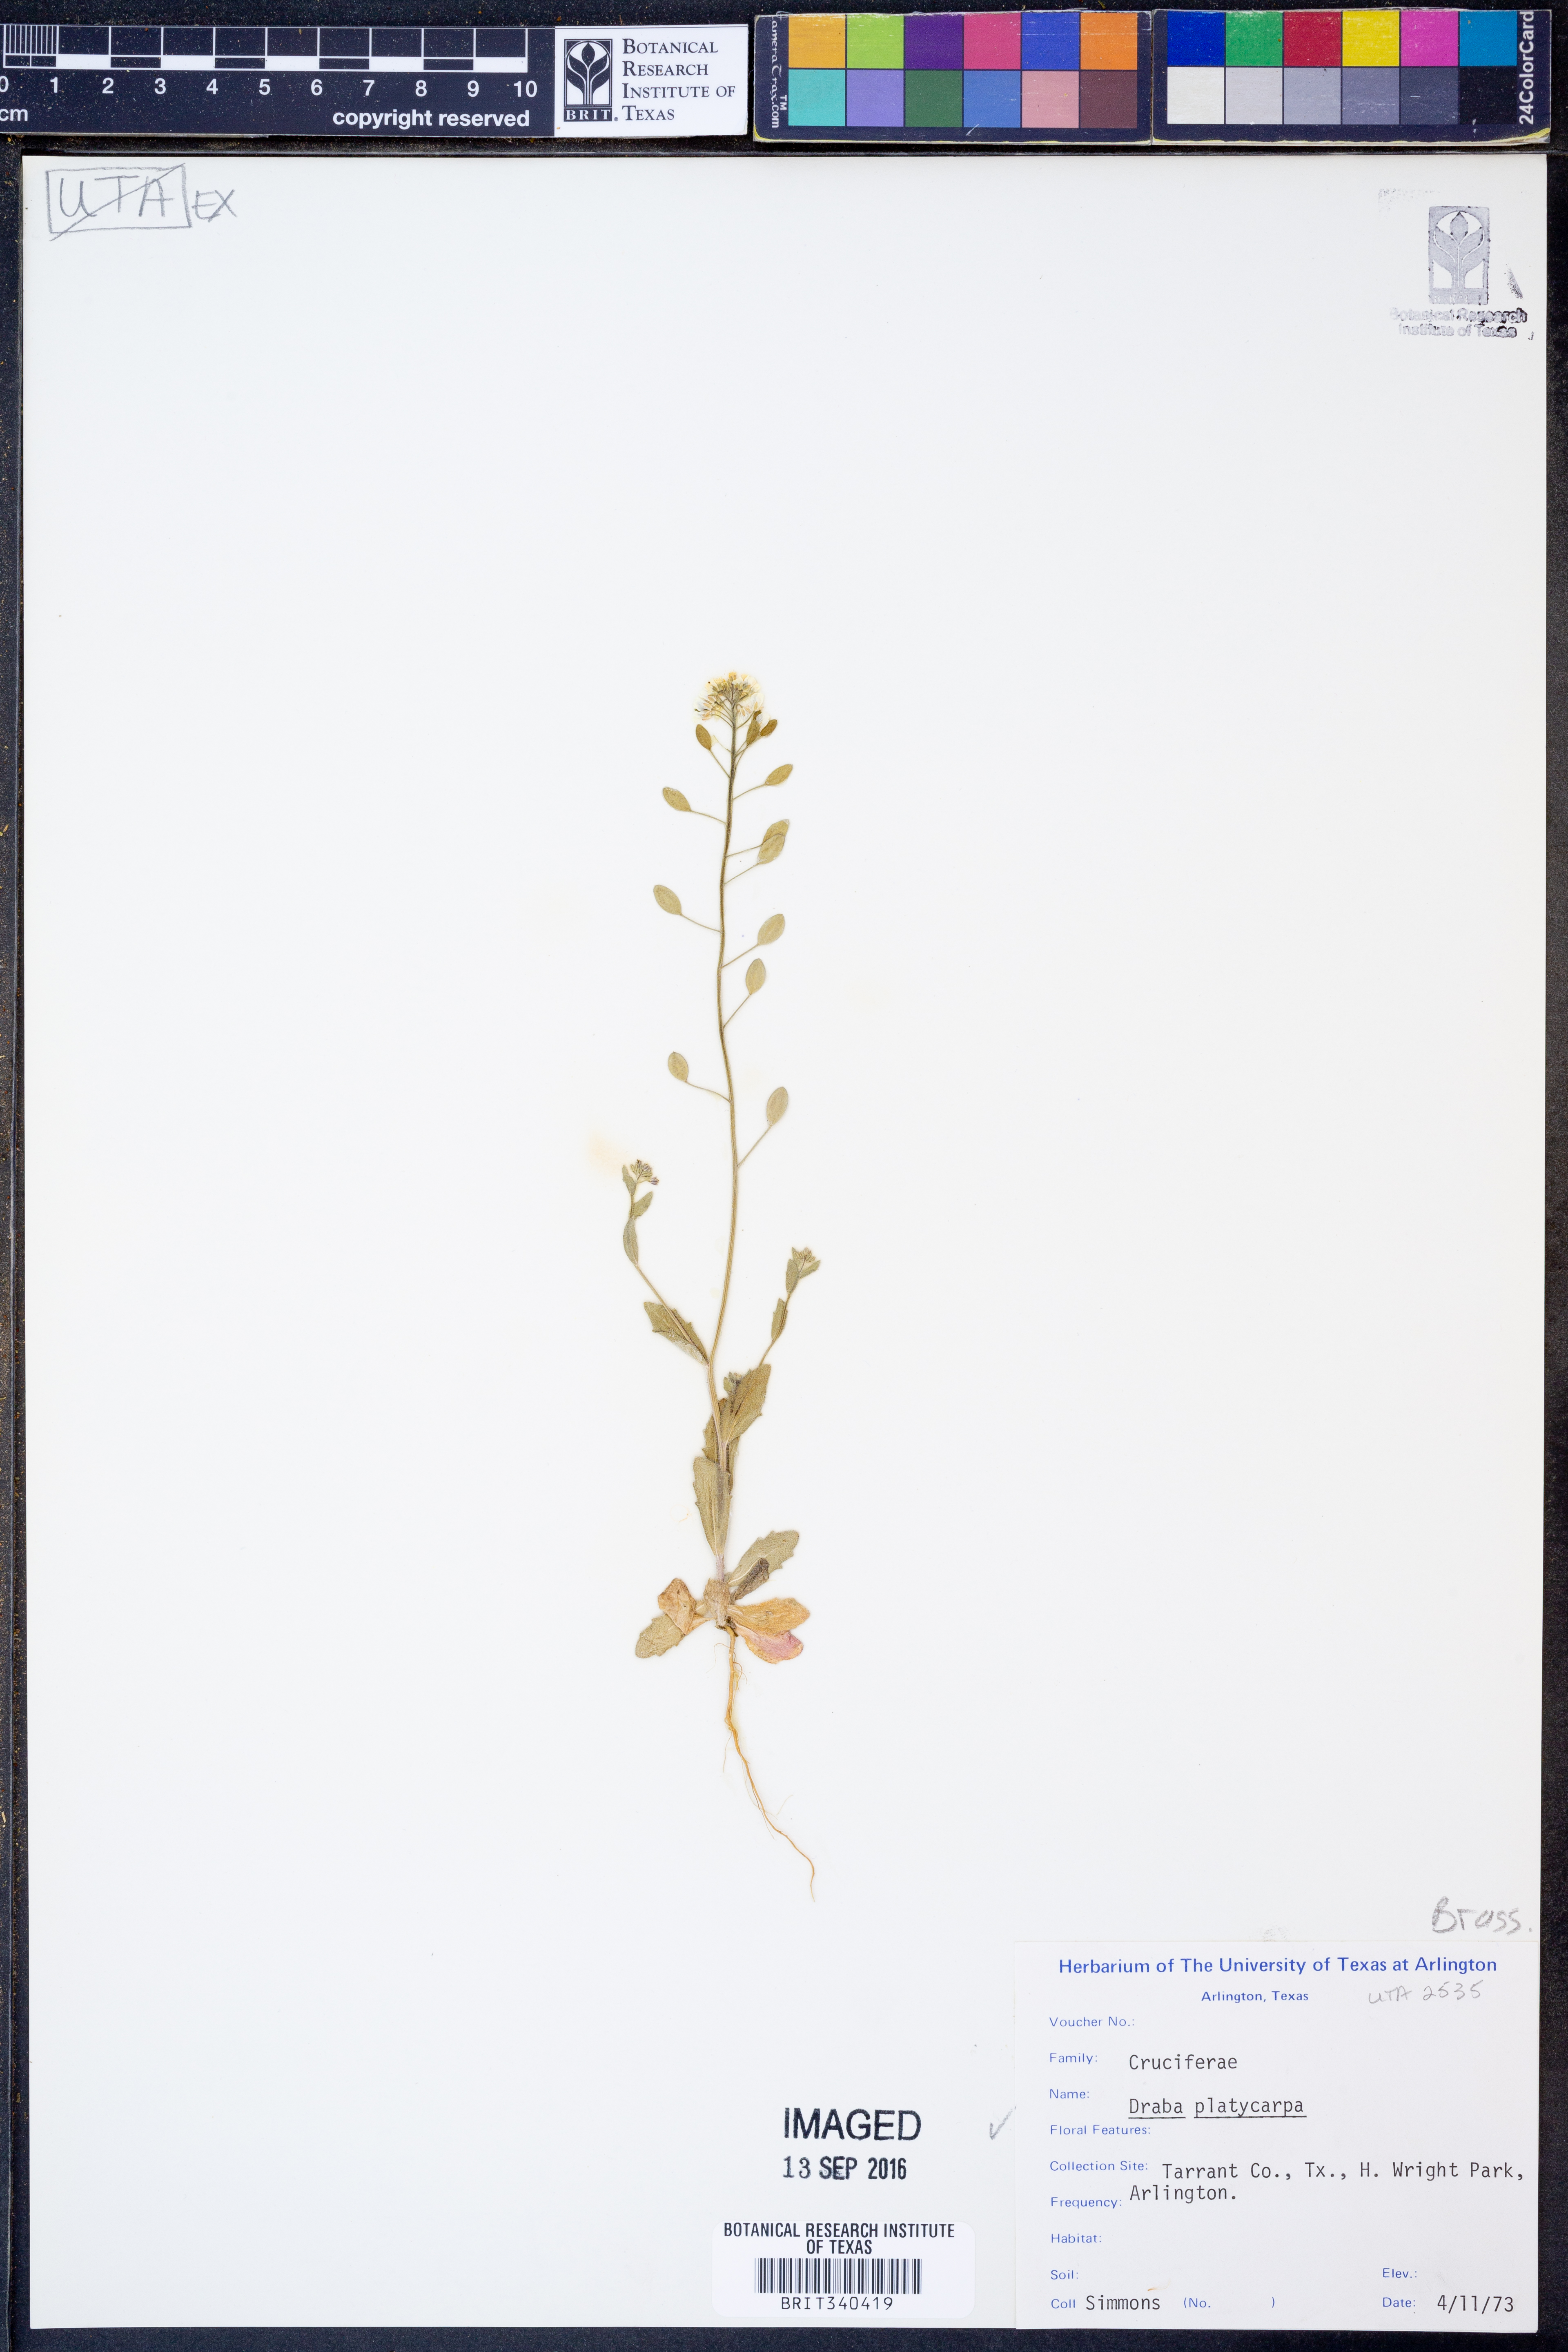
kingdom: Plantae
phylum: Tracheophyta
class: Magnoliopsida
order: Brassicales
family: Brassicaceae
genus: Tomostima
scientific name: Tomostima platycarpa
